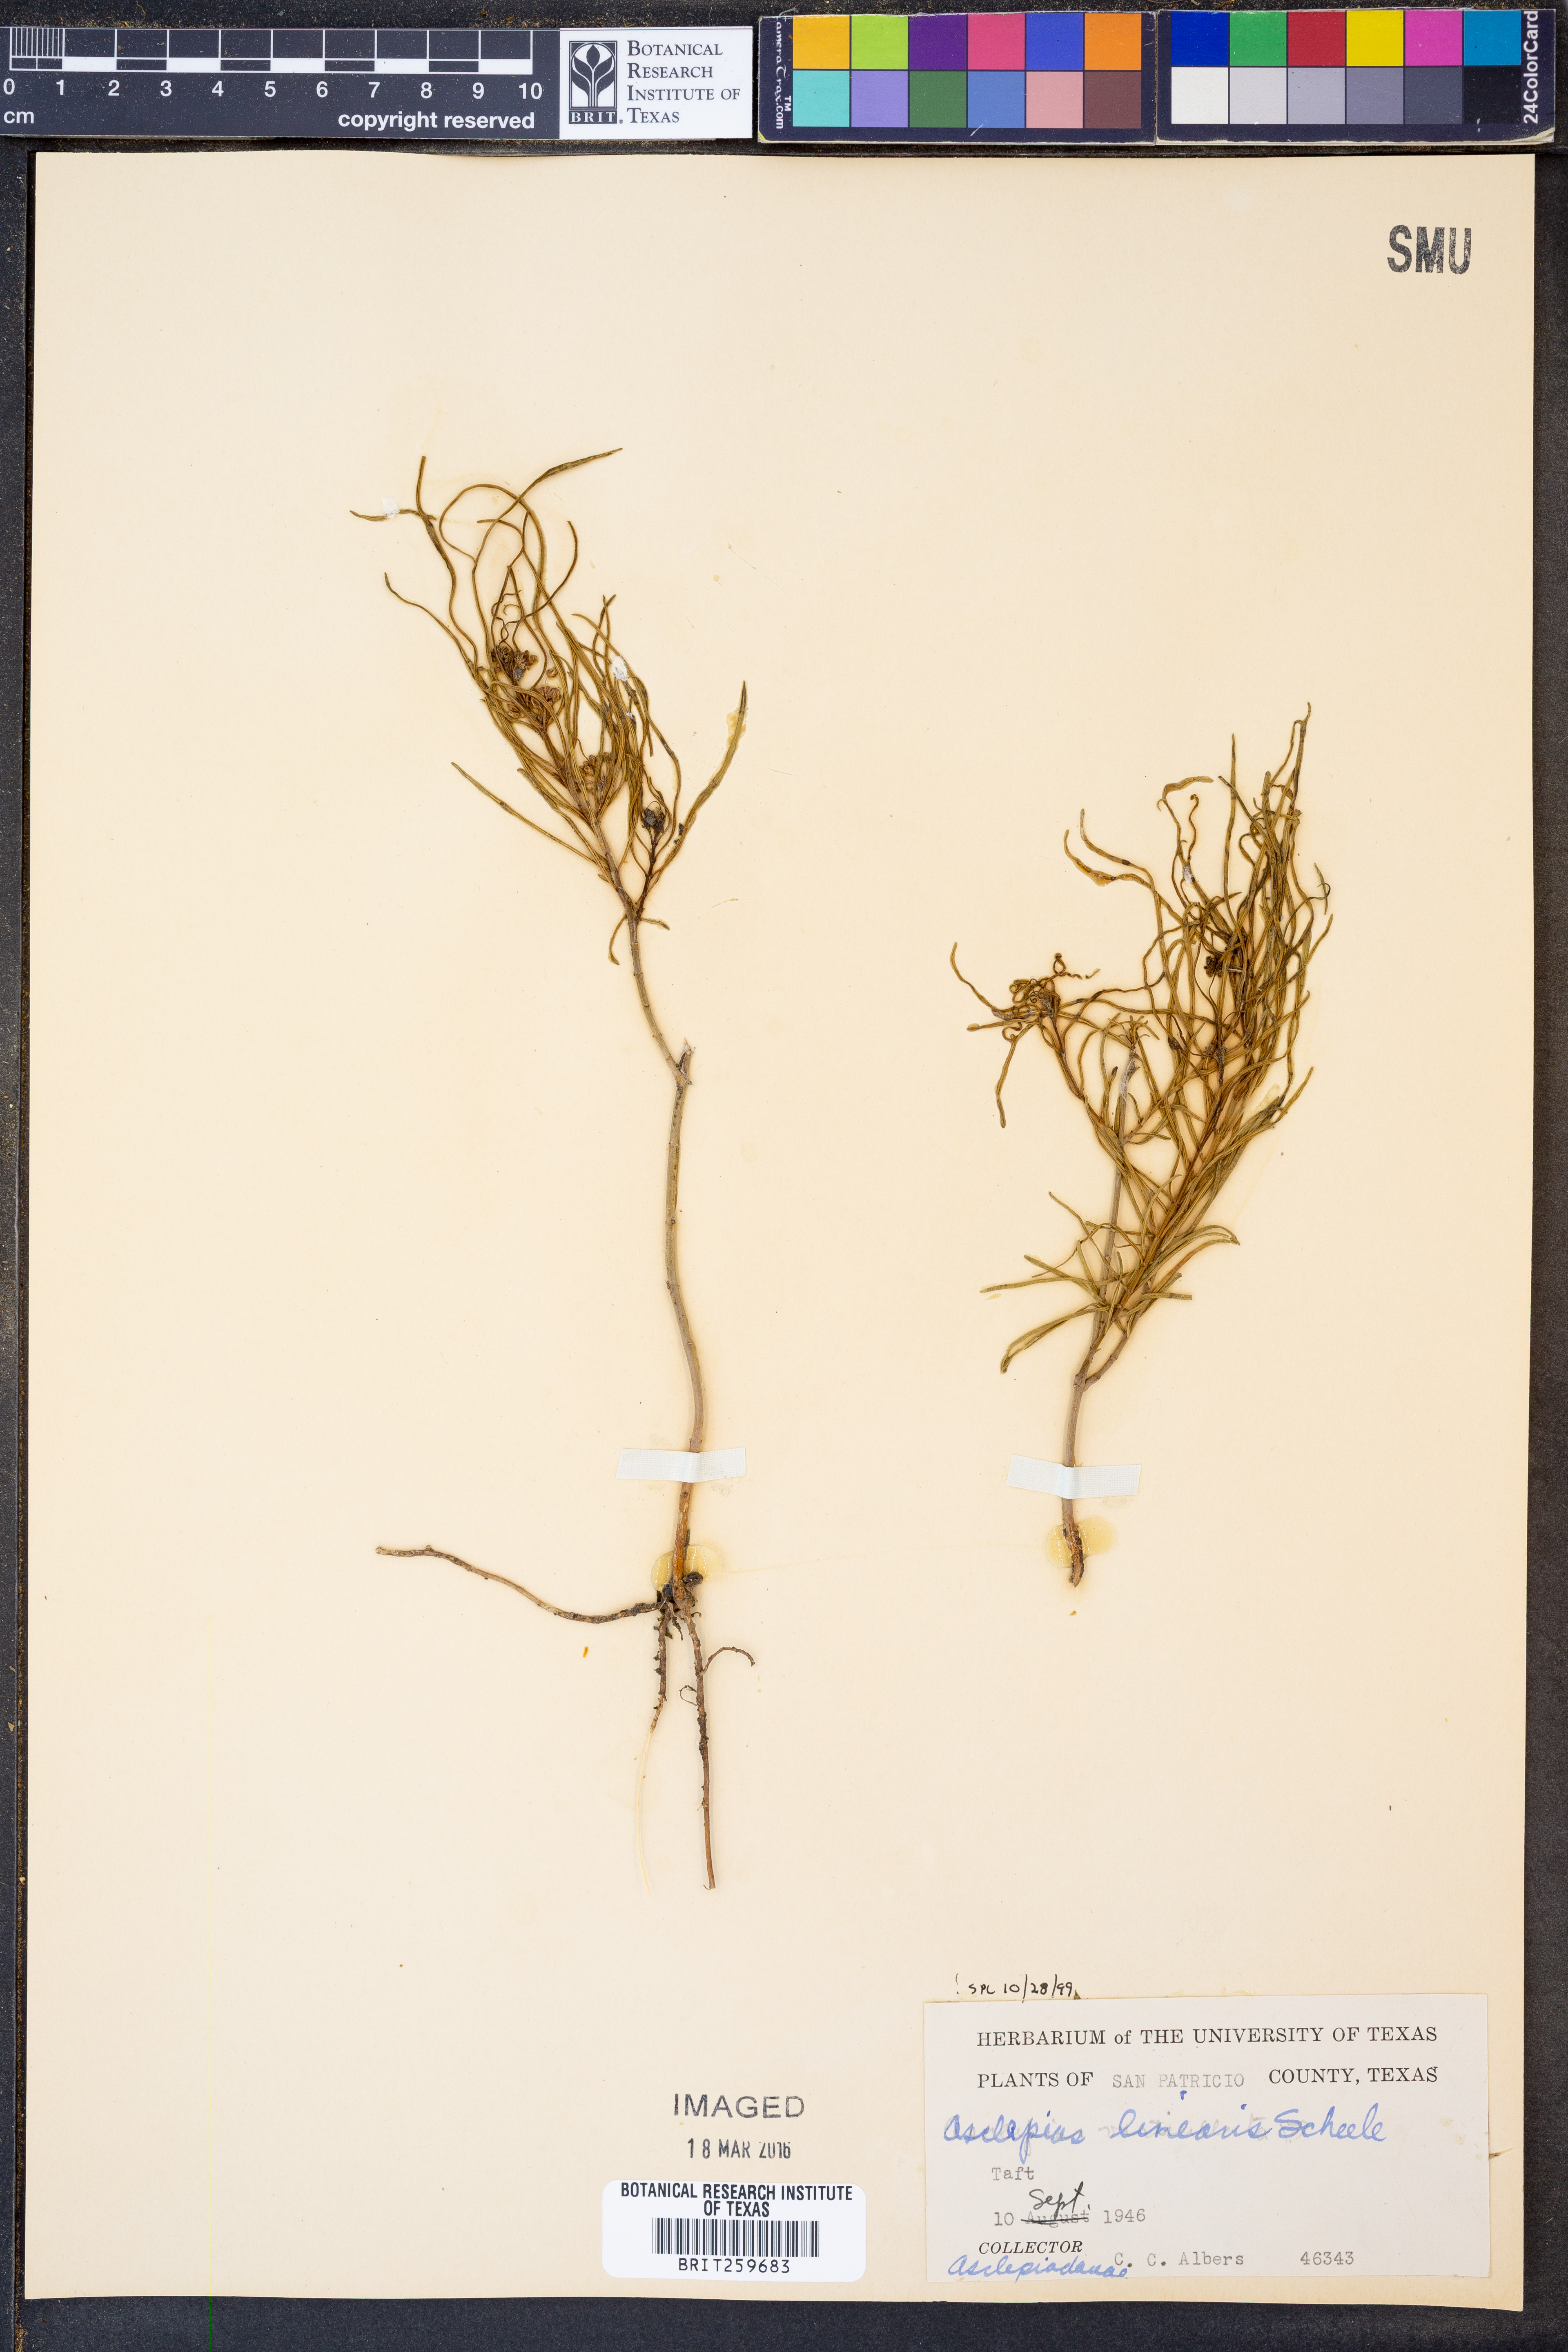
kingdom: Plantae
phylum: Tracheophyta
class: Magnoliopsida
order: Gentianales
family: Apocynaceae
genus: Asclepias
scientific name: Asclepias linearis
